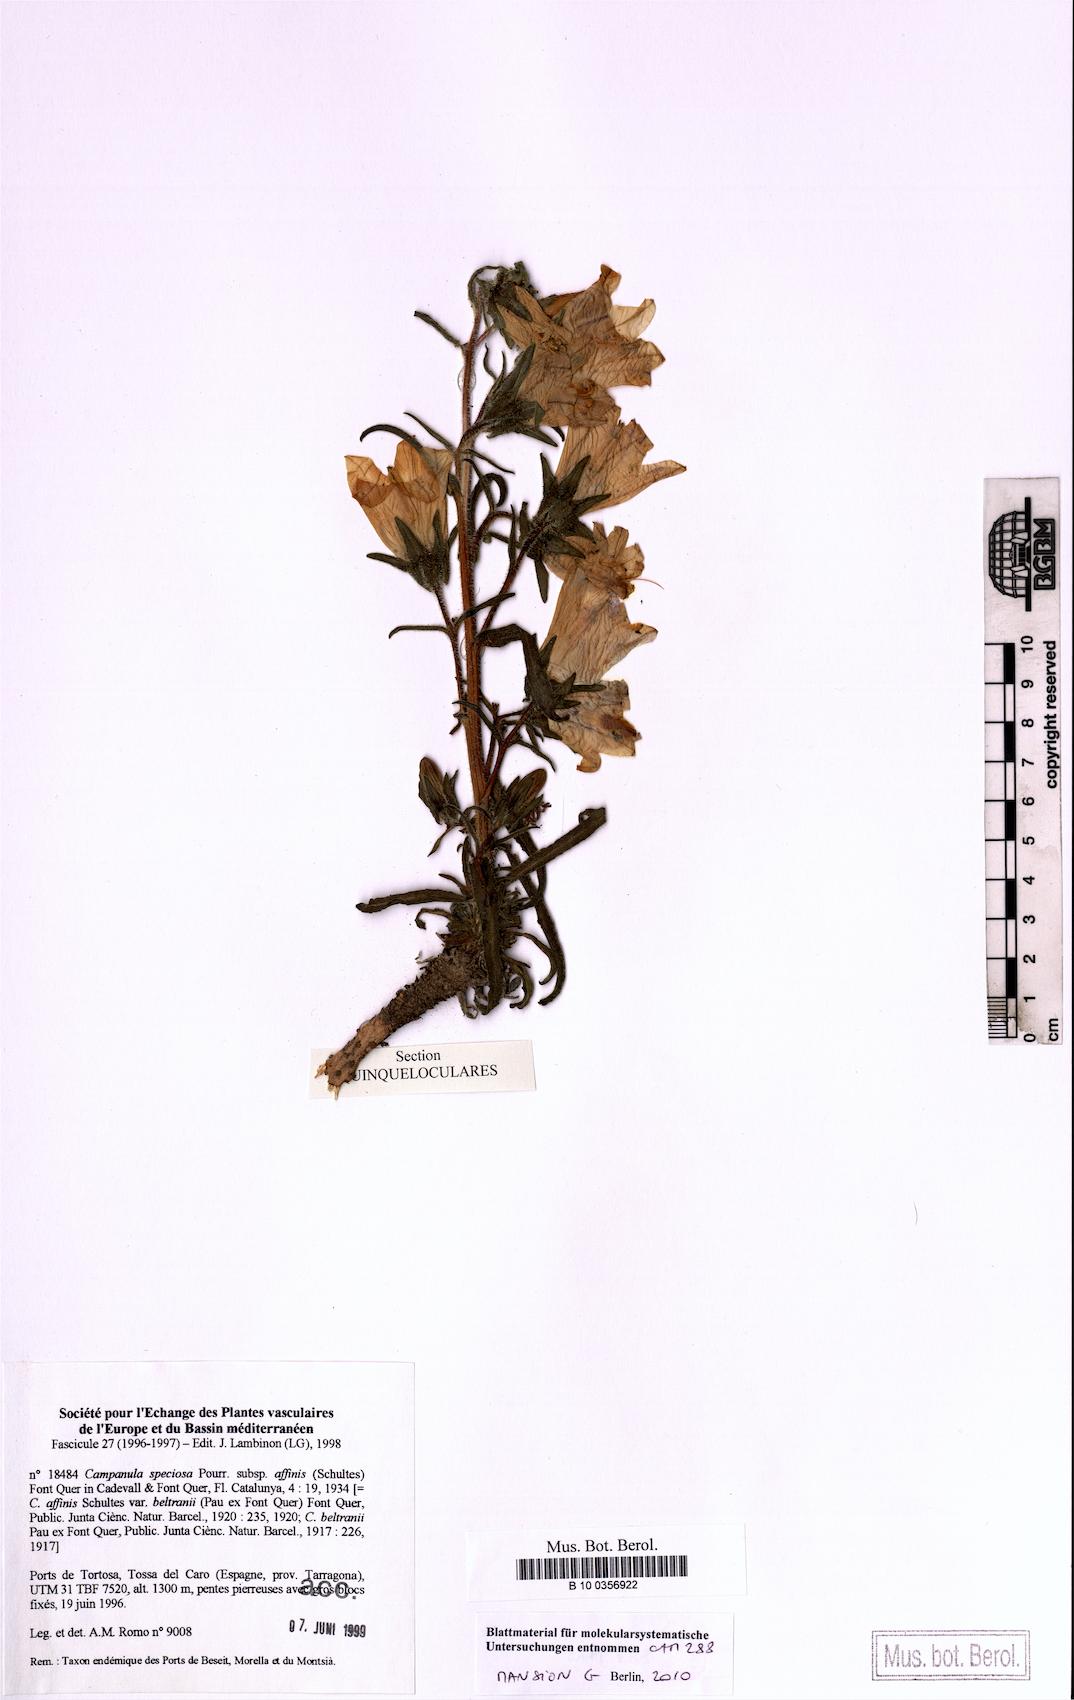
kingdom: Plantae
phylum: Tracheophyta
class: Magnoliopsida
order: Asterales
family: Campanulaceae
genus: Campanula
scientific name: Campanula speciosa
